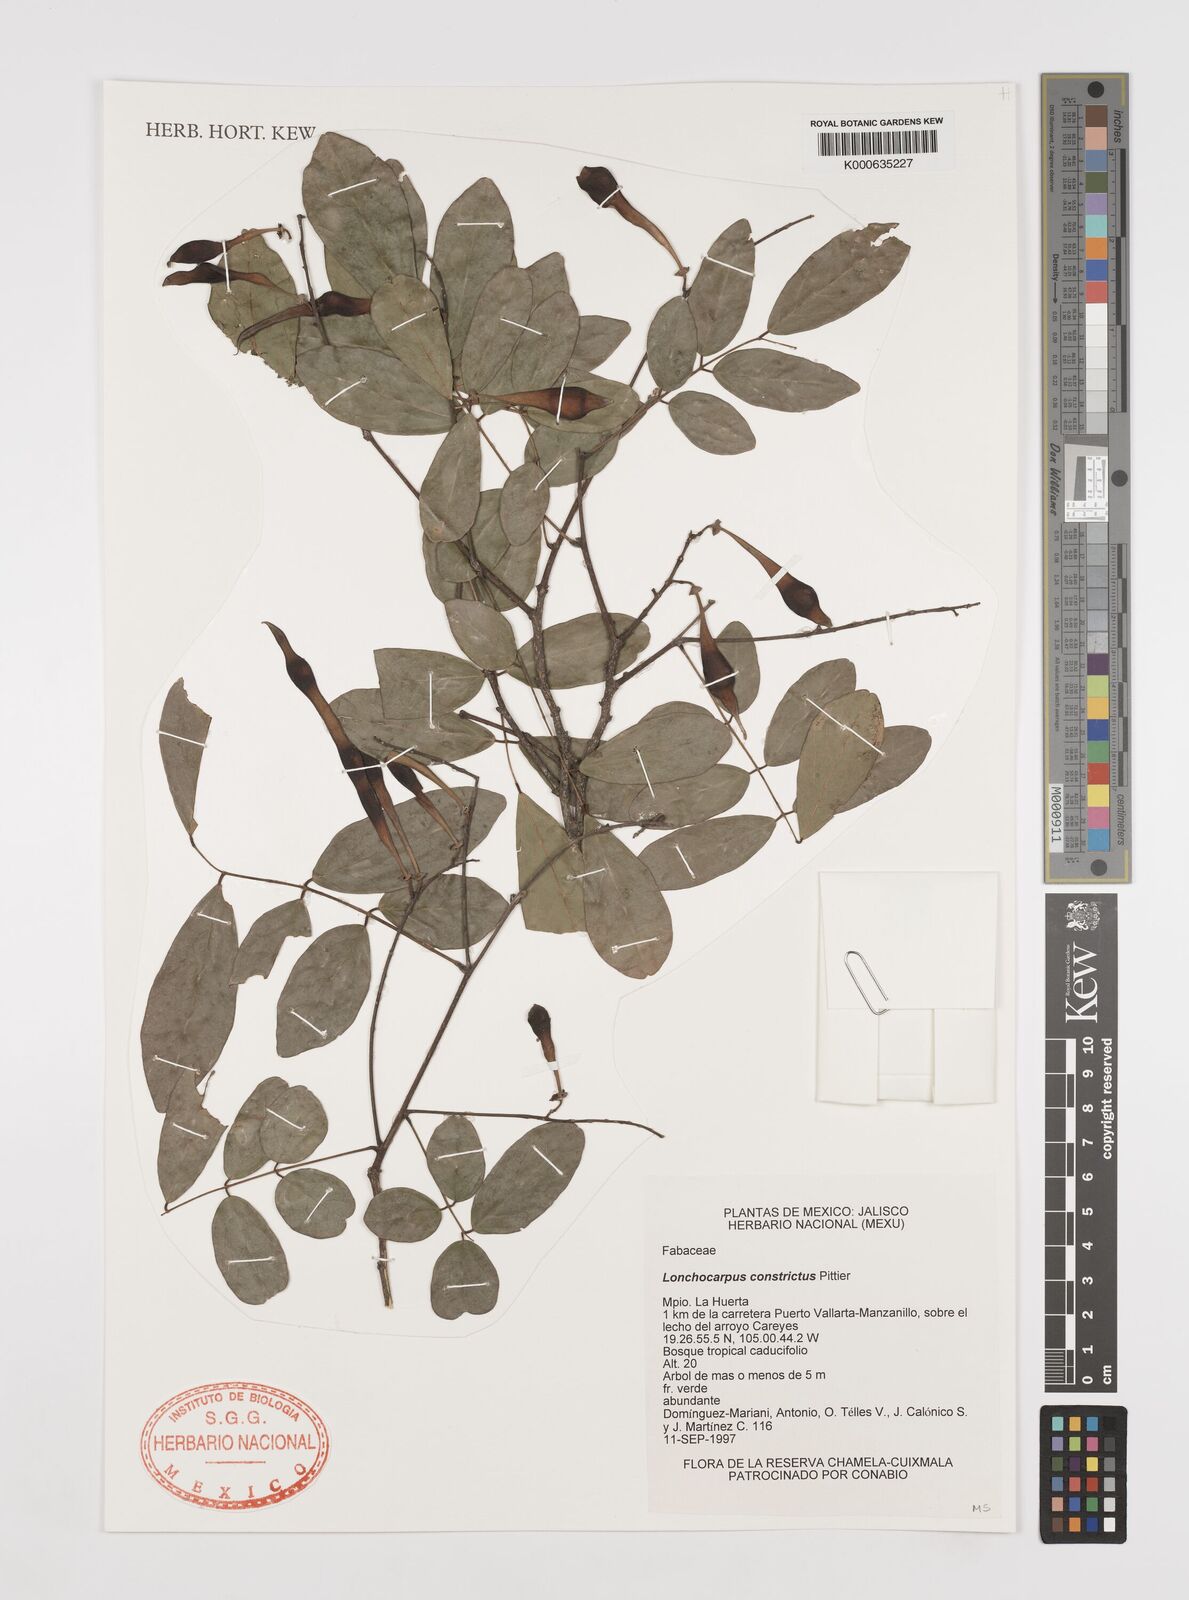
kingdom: Plantae
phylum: Tracheophyta
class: Magnoliopsida
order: Fabales
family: Fabaceae
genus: Lonchocarpus
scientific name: Lonchocarpus constrictus
